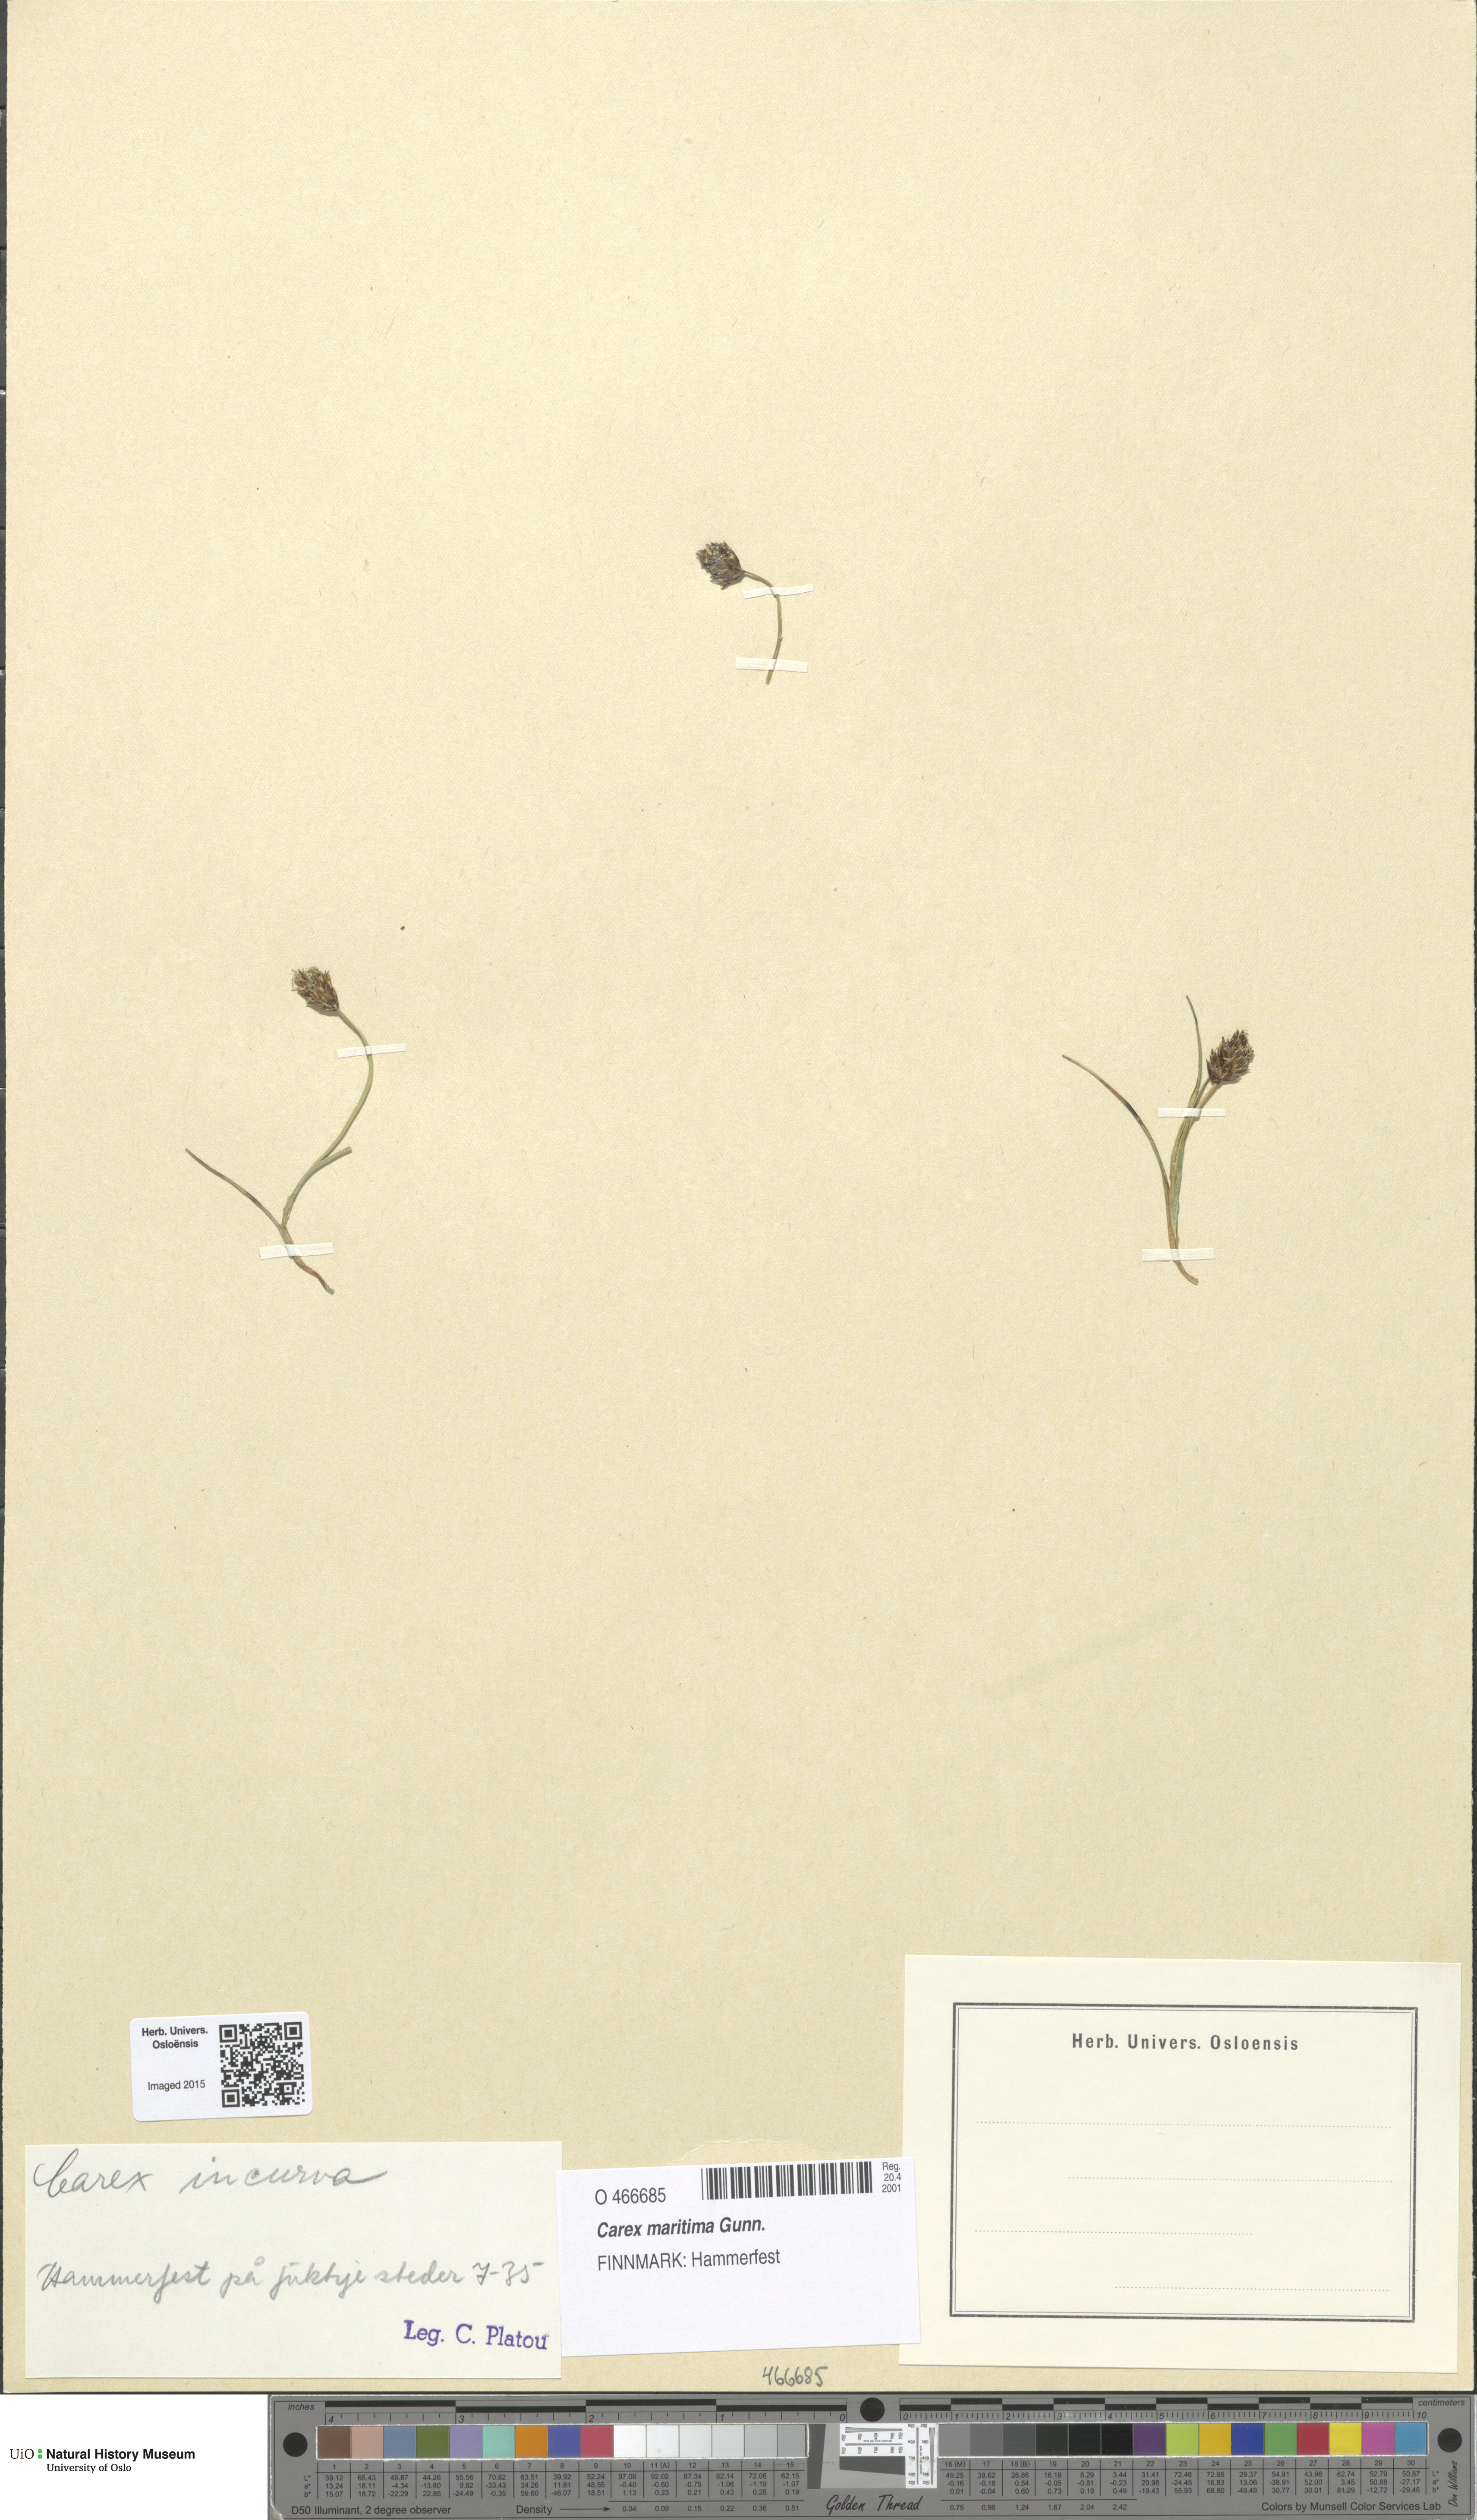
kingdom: Plantae
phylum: Tracheophyta
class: Liliopsida
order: Poales
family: Cyperaceae
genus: Carex
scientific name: Carex maritima
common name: Curved sedge
